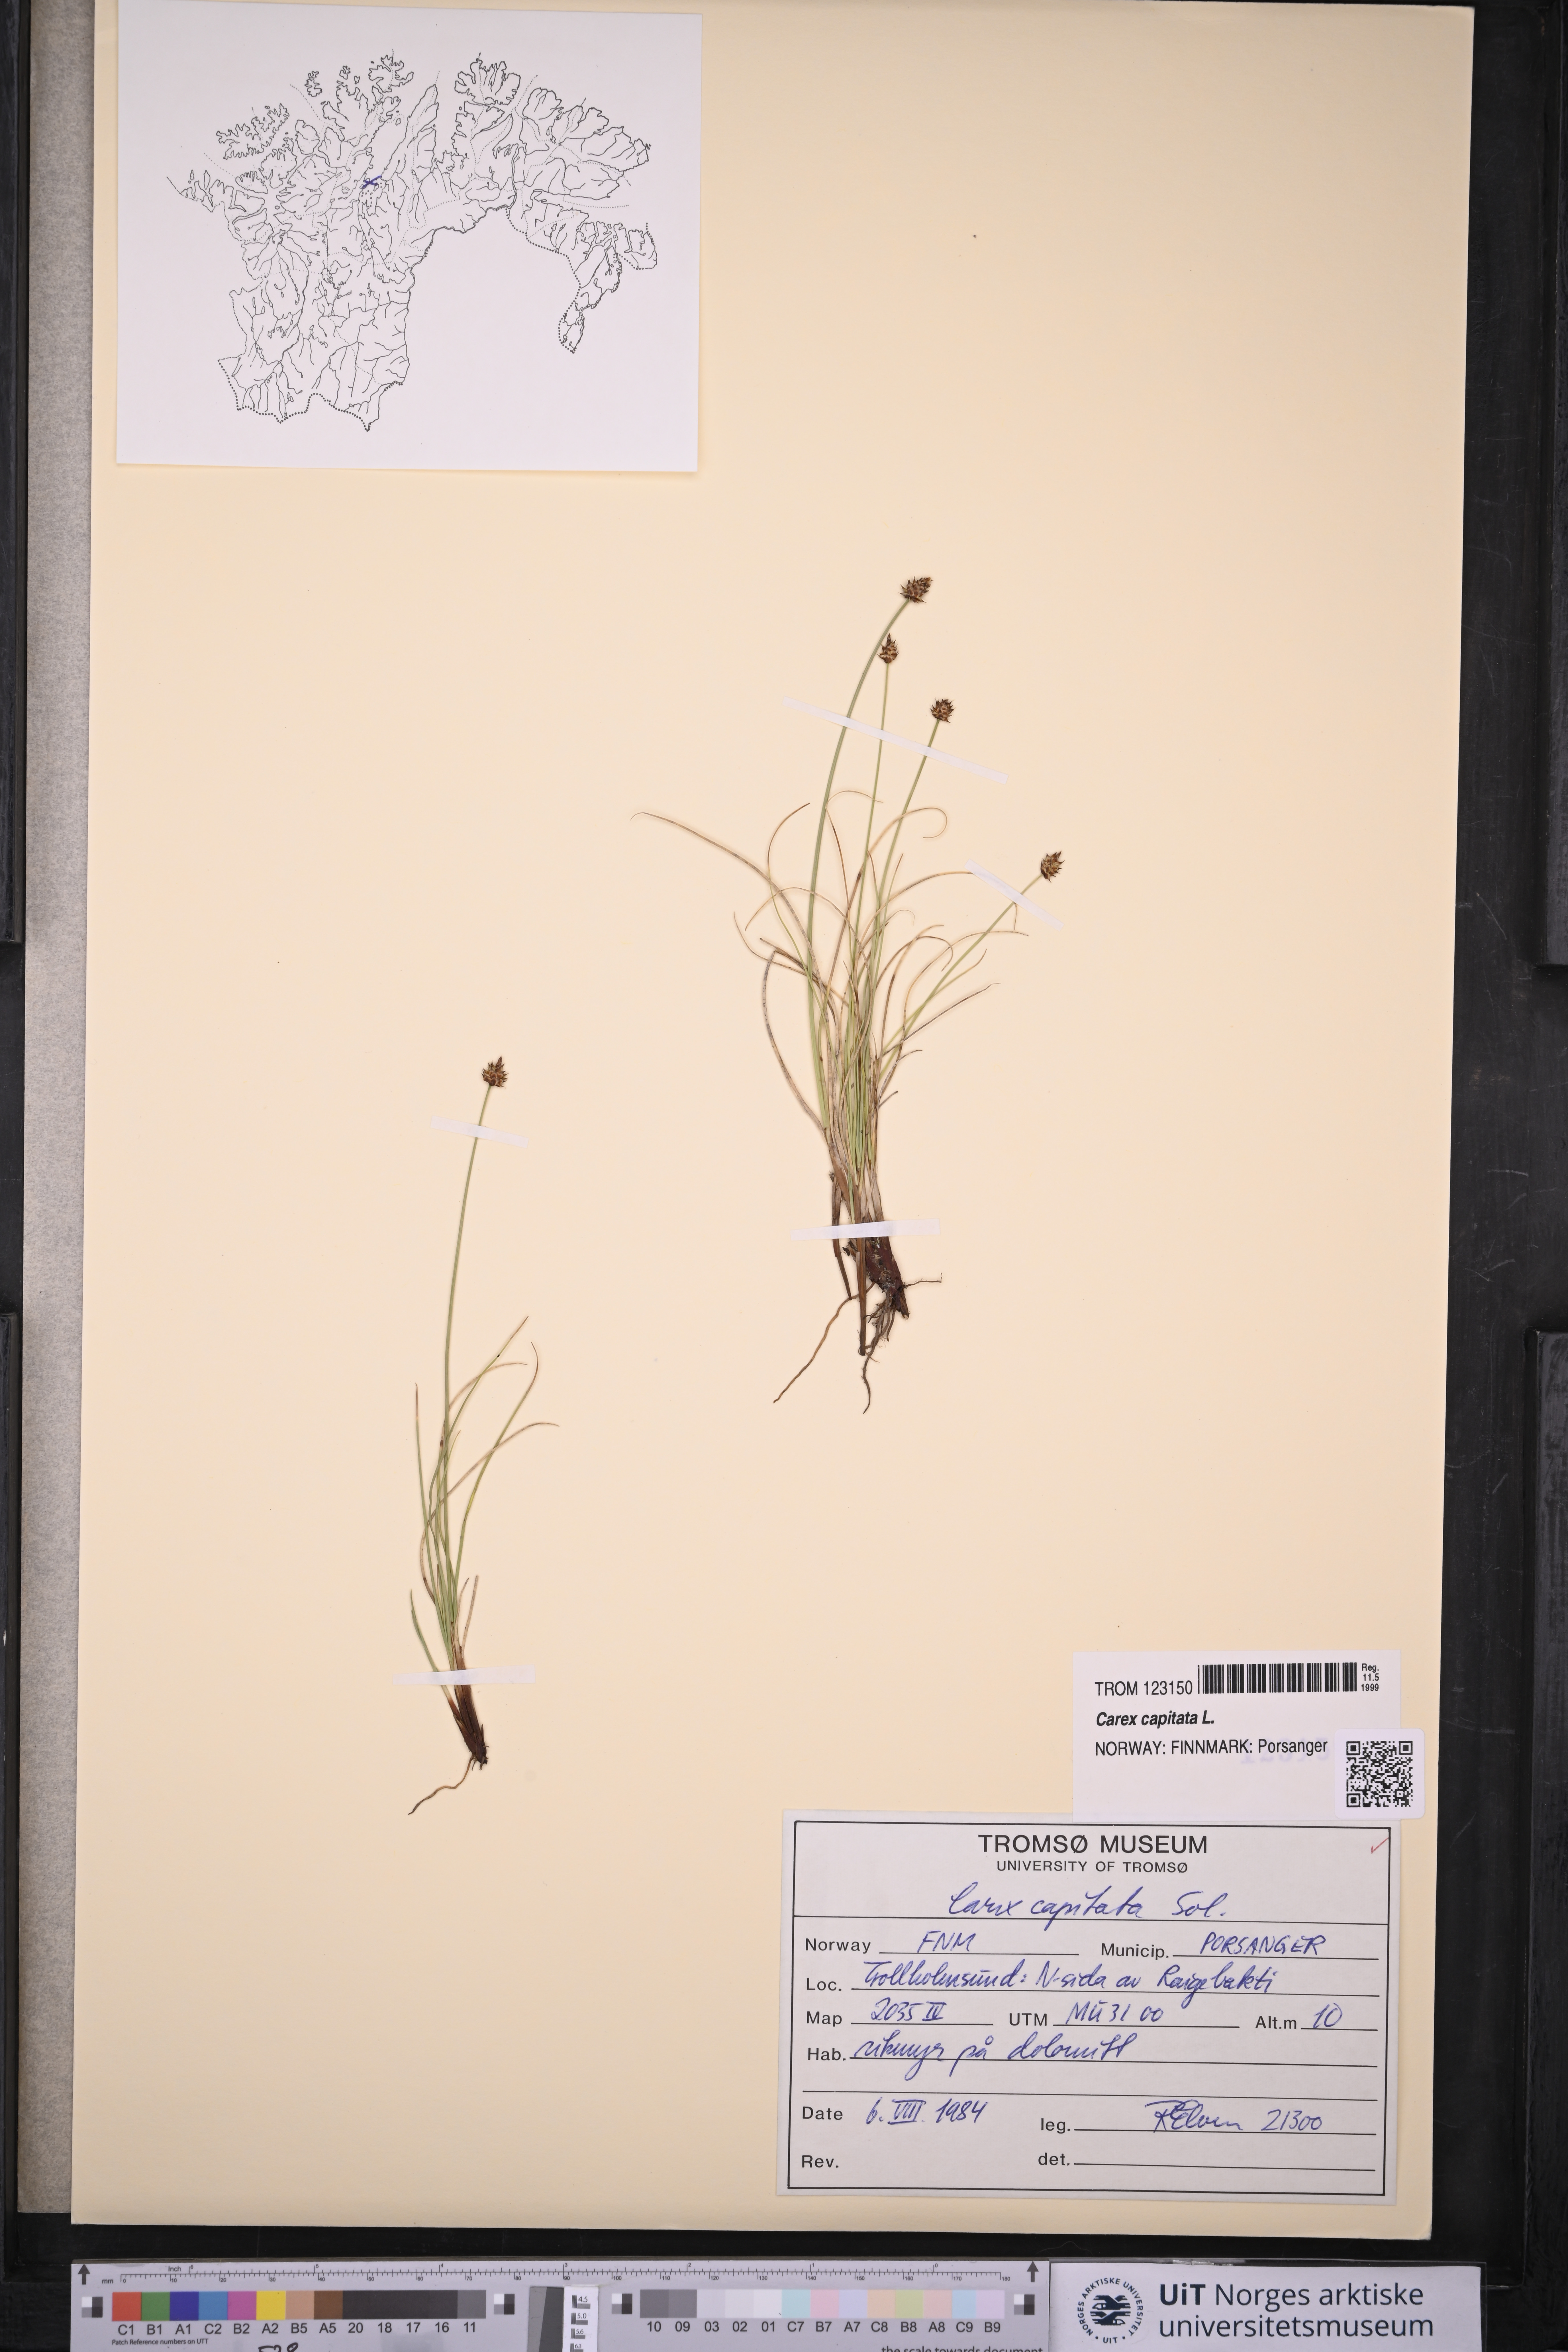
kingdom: Plantae
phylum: Tracheophyta
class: Liliopsida
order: Poales
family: Cyperaceae
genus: Carex
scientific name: Carex capitata
